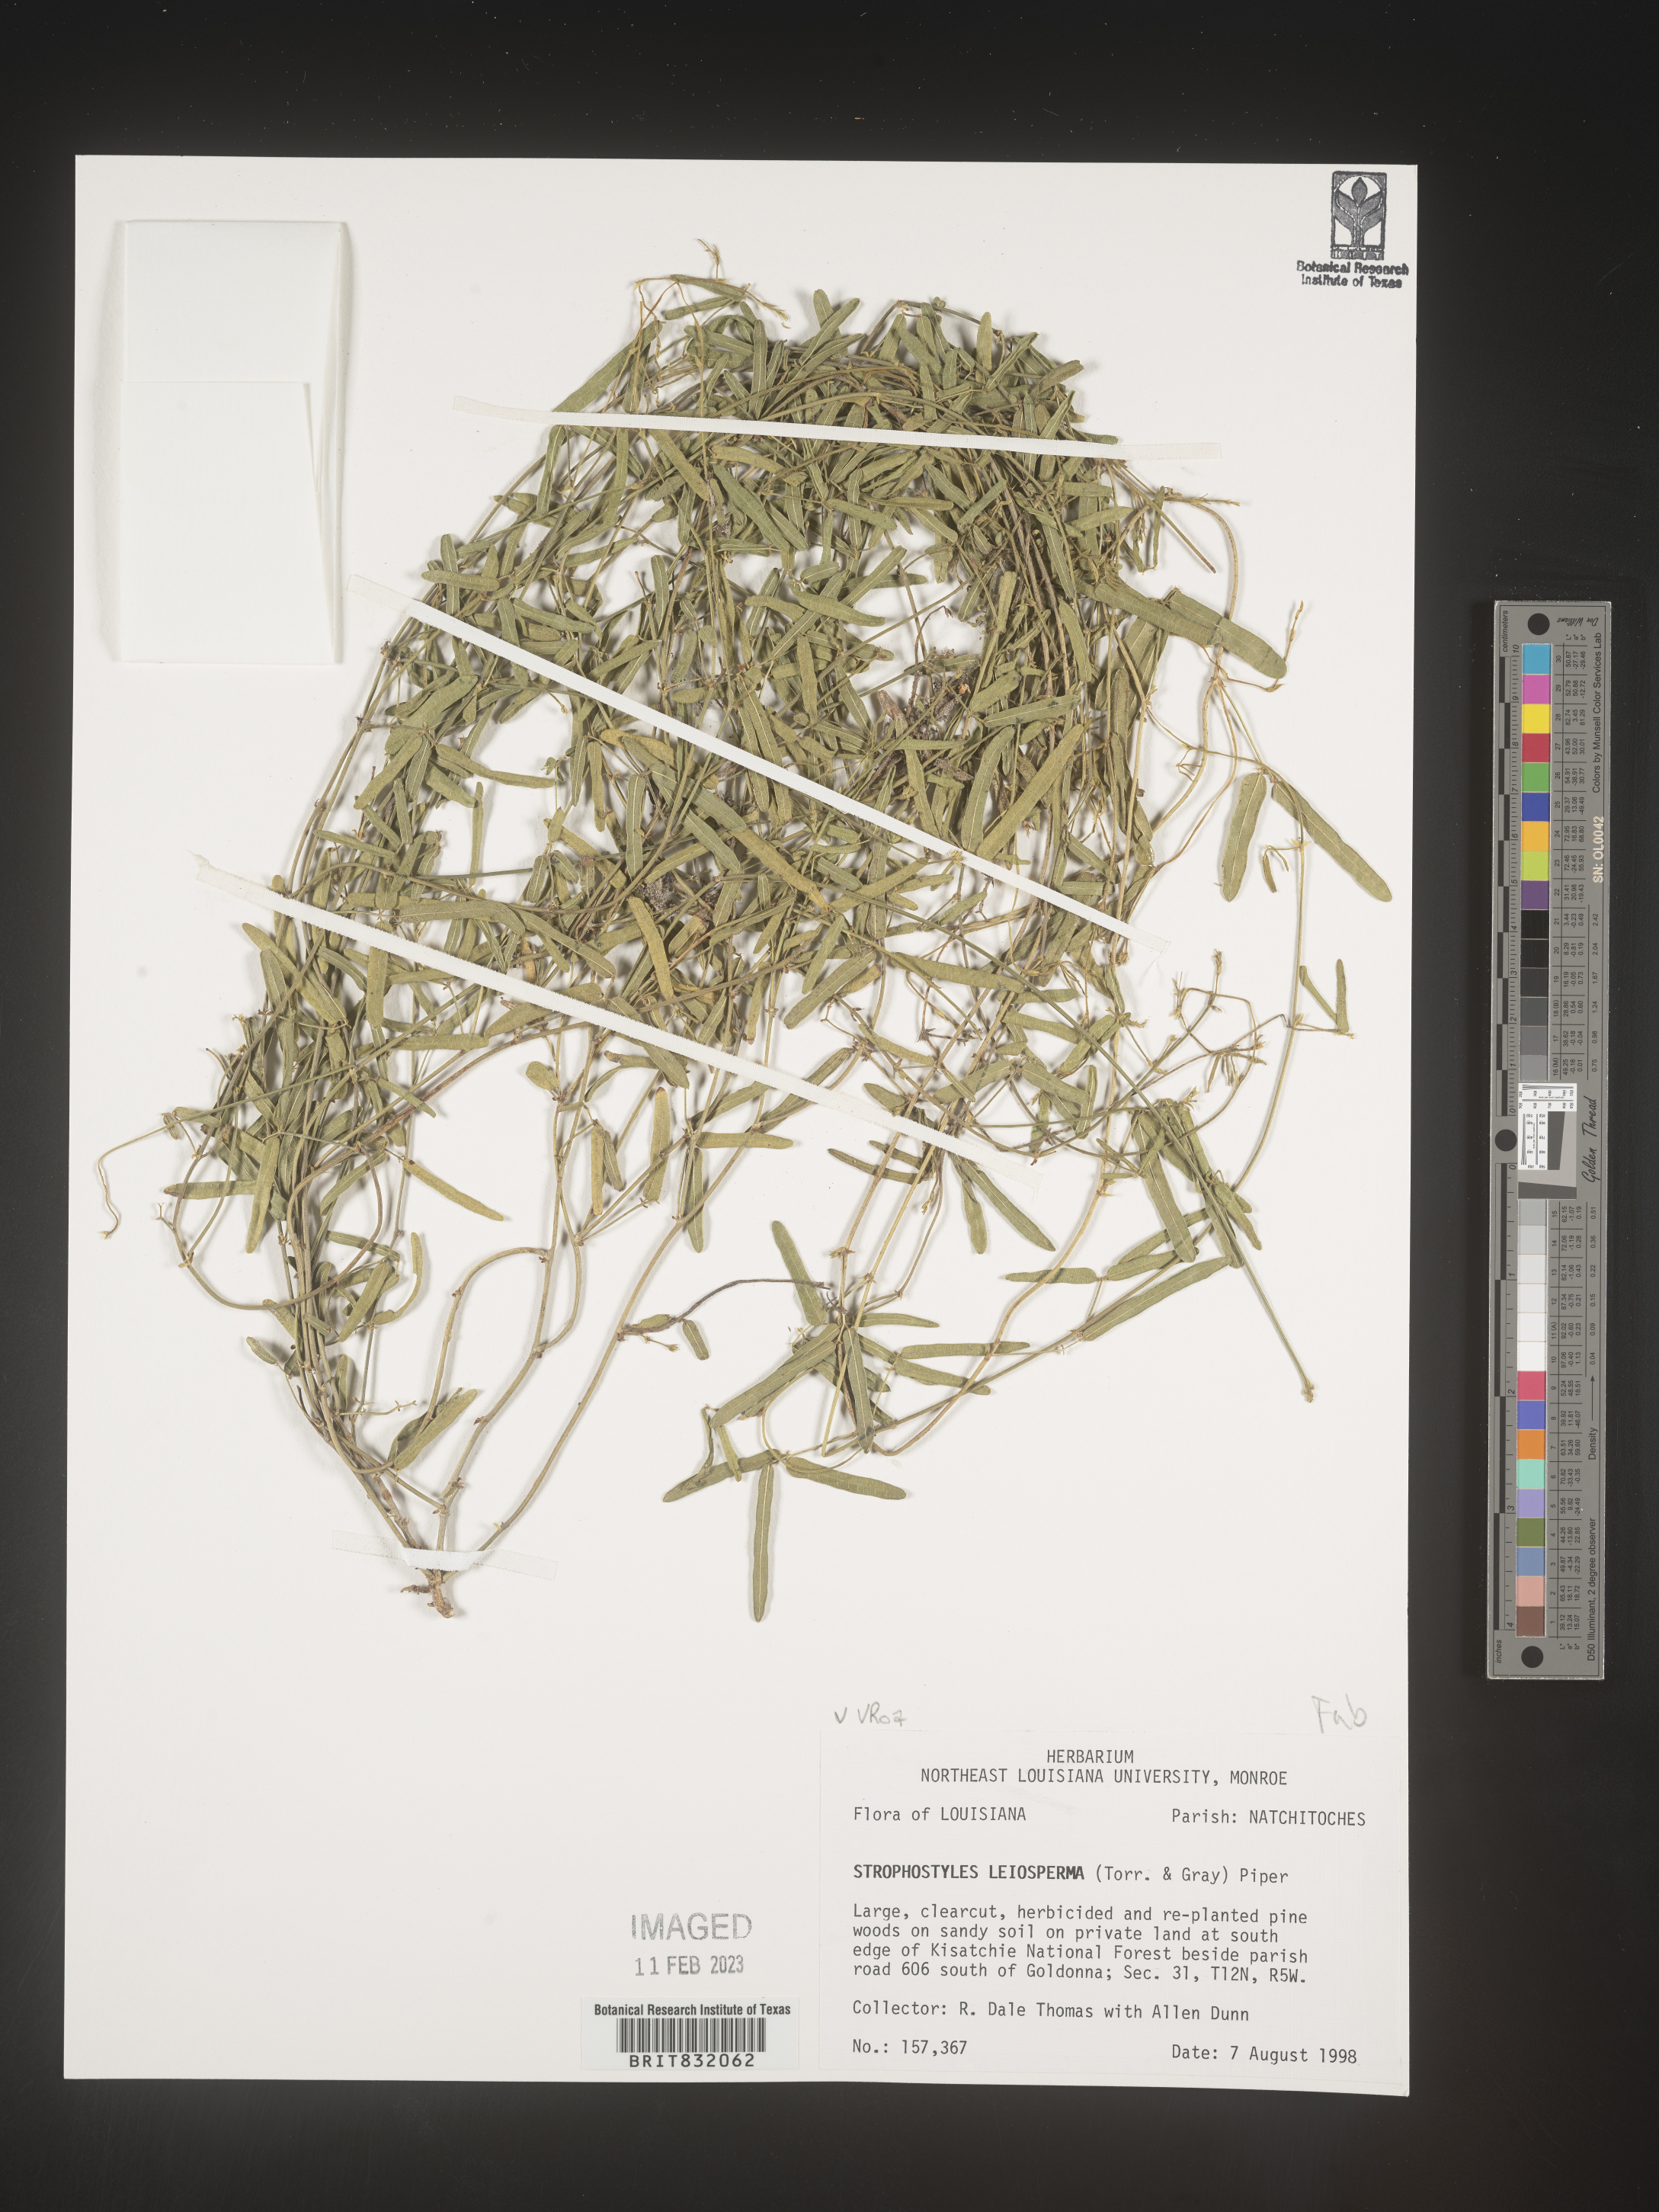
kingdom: Plantae
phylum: Tracheophyta
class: Magnoliopsida
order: Fabales
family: Fabaceae
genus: Strophostyles
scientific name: Strophostyles leiosperma
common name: Smooth-seed wild bean
